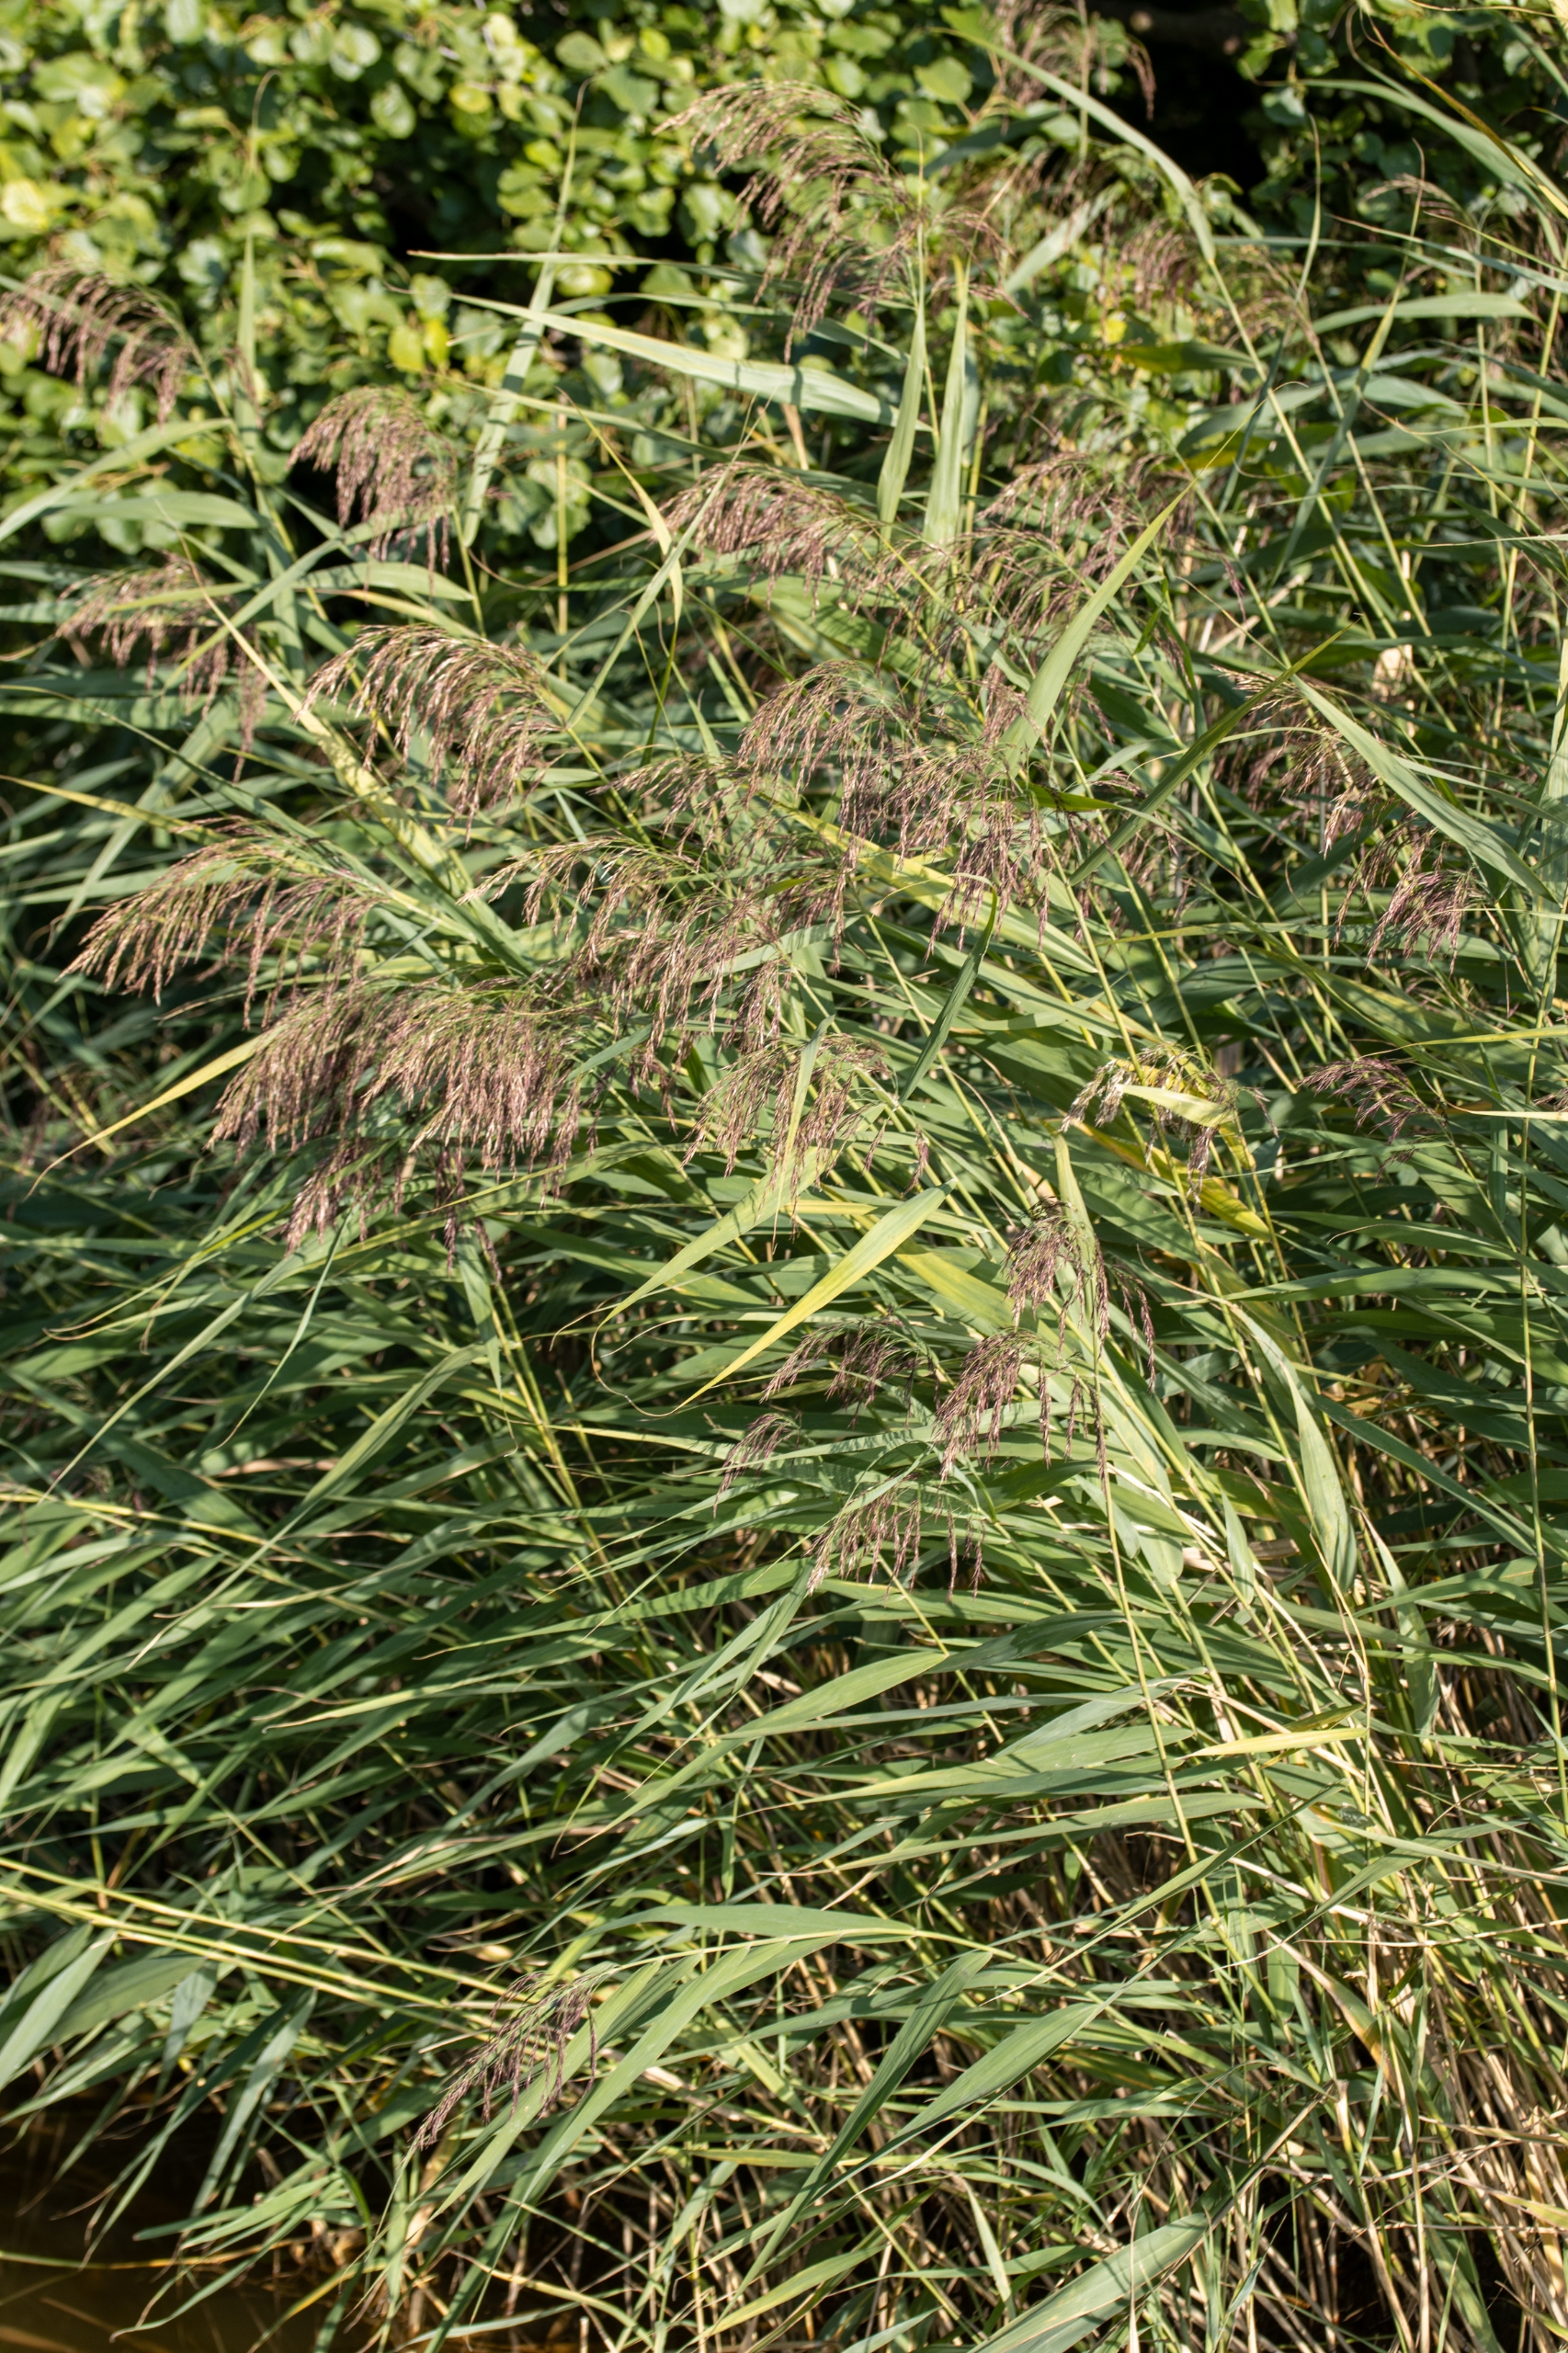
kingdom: Plantae
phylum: Tracheophyta
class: Liliopsida
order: Poales
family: Poaceae
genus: Phragmites
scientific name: Phragmites australis
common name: Tagrør
